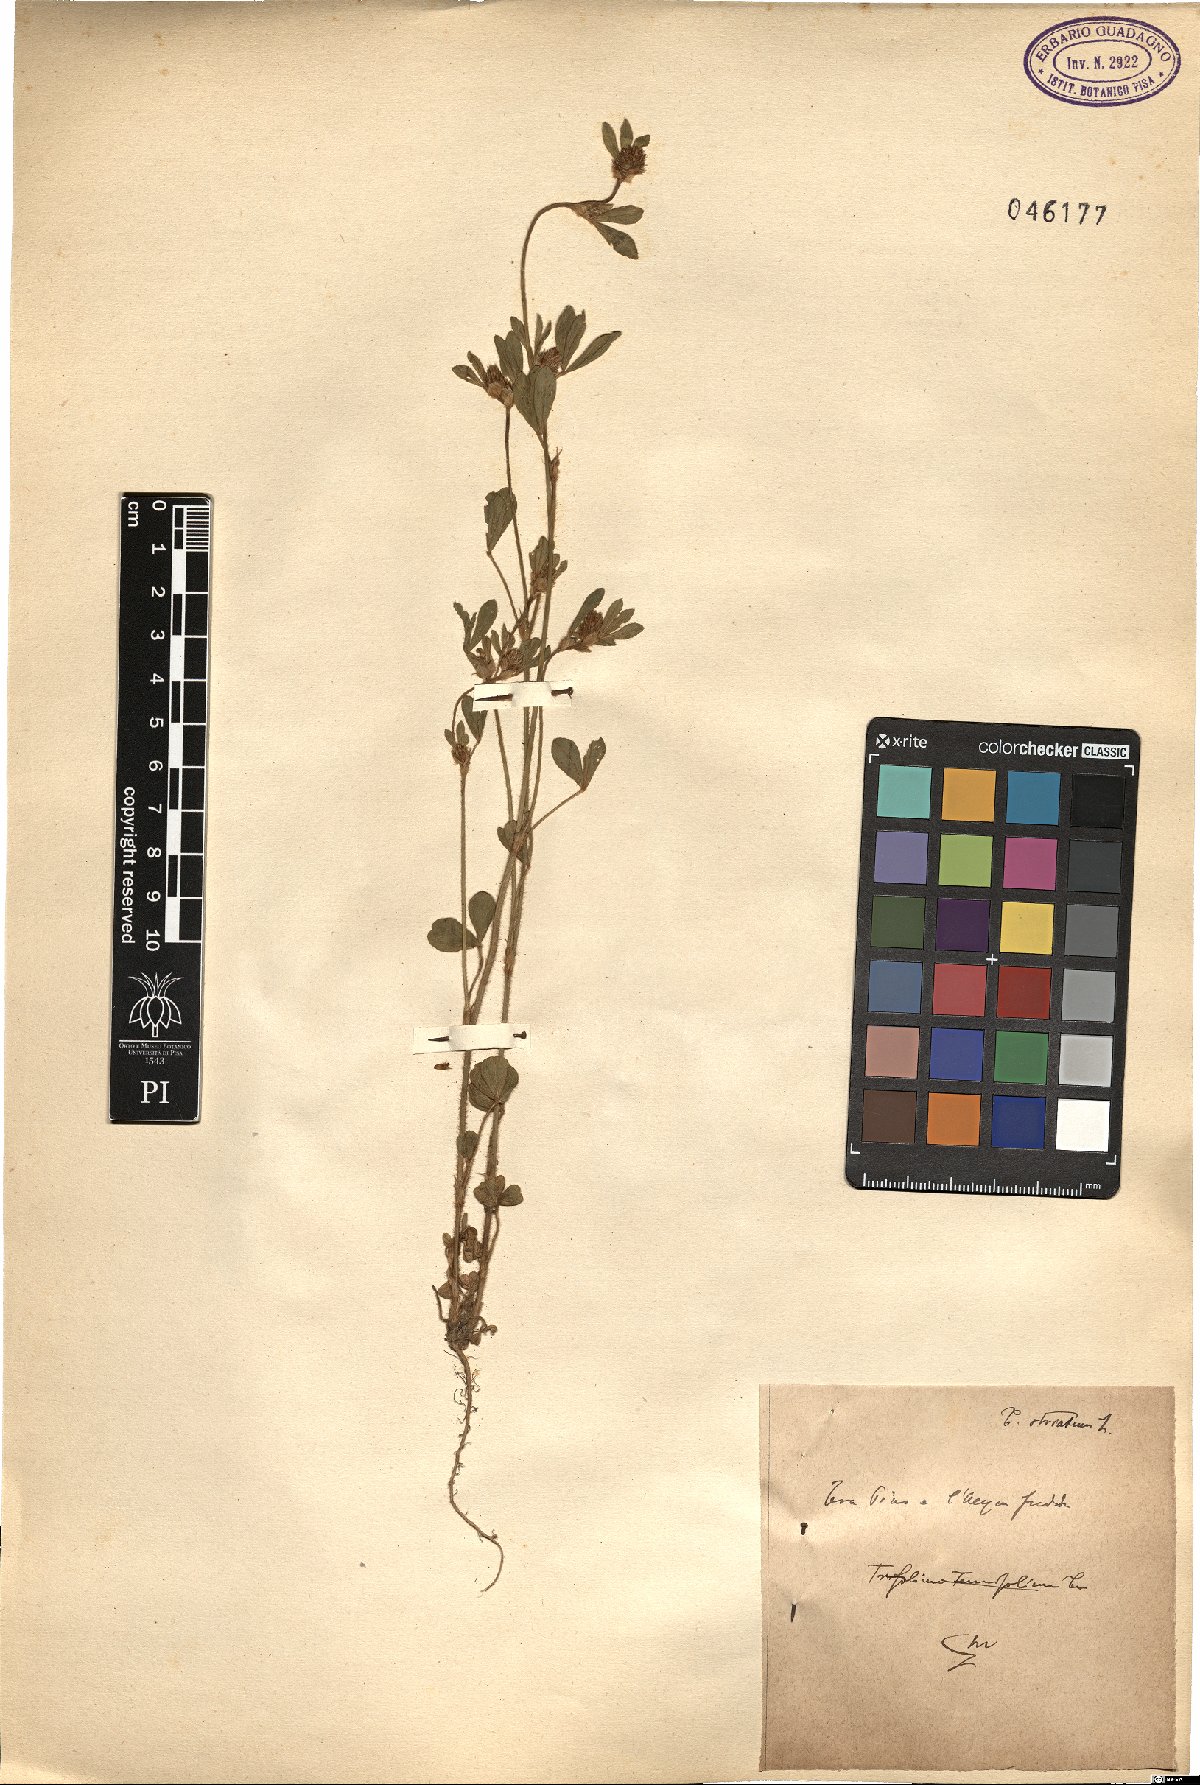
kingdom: Plantae
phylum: Tracheophyta
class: Magnoliopsida
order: Fabales
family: Fabaceae
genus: Trifolium
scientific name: Trifolium striatum
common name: Knotted clover
